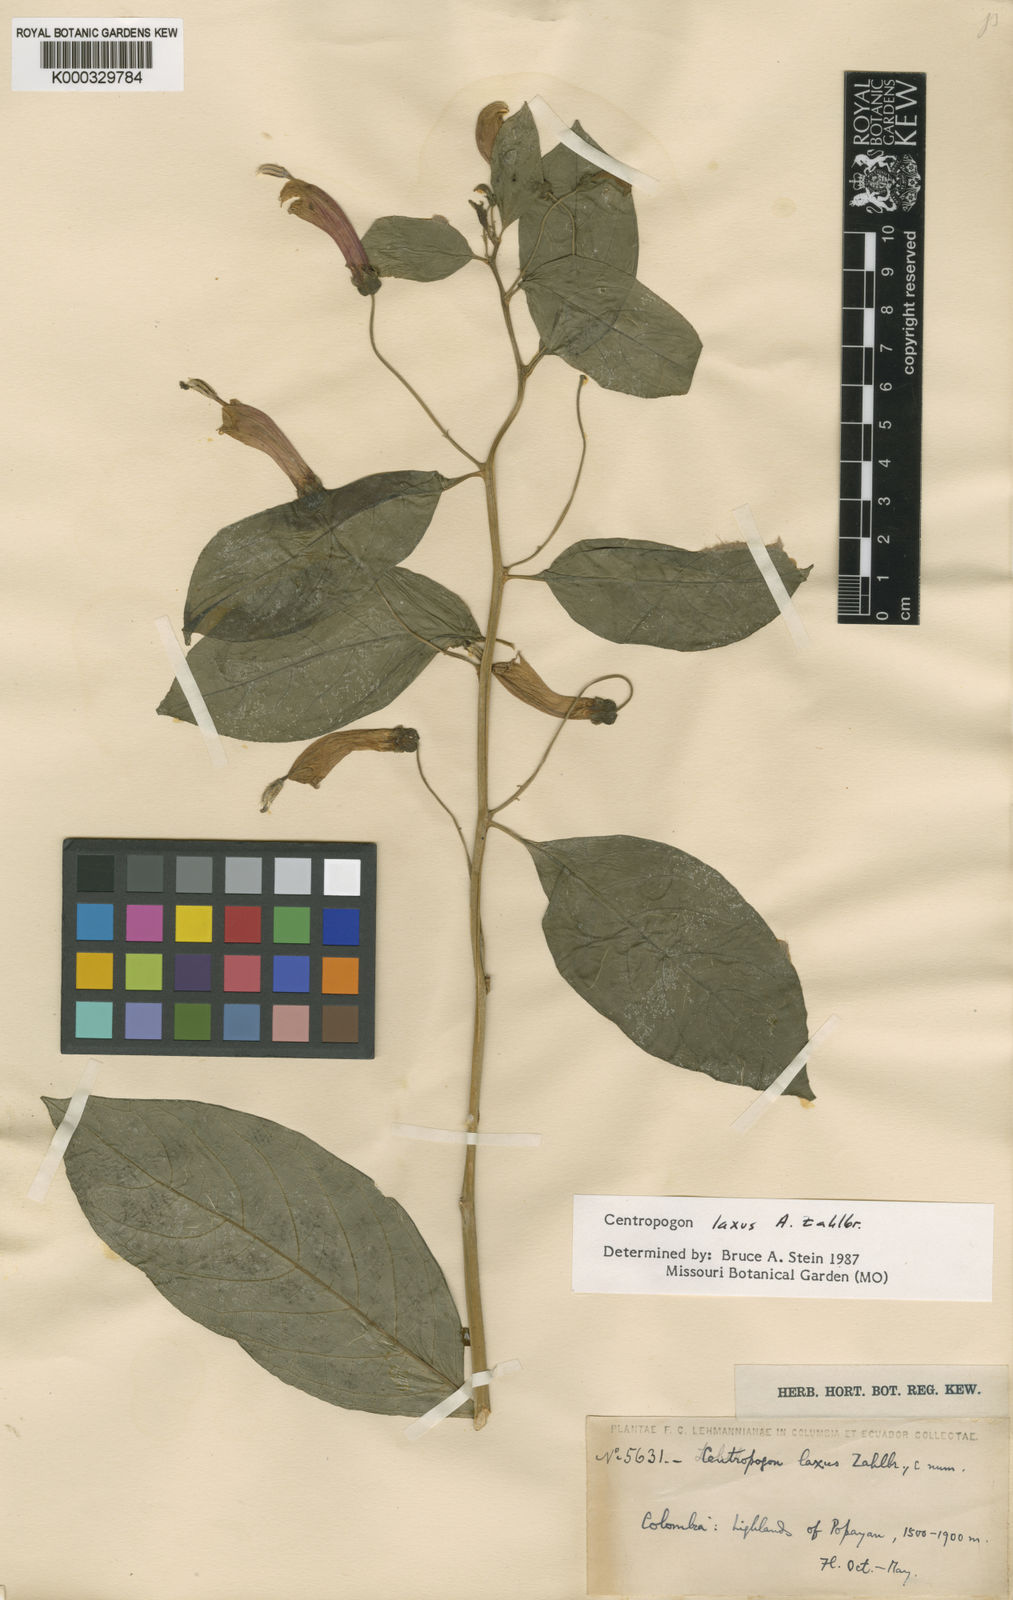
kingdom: Plantae
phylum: Tracheophyta
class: Magnoliopsida
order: Asterales
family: Campanulaceae
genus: Centropogon
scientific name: Centropogon laxus
